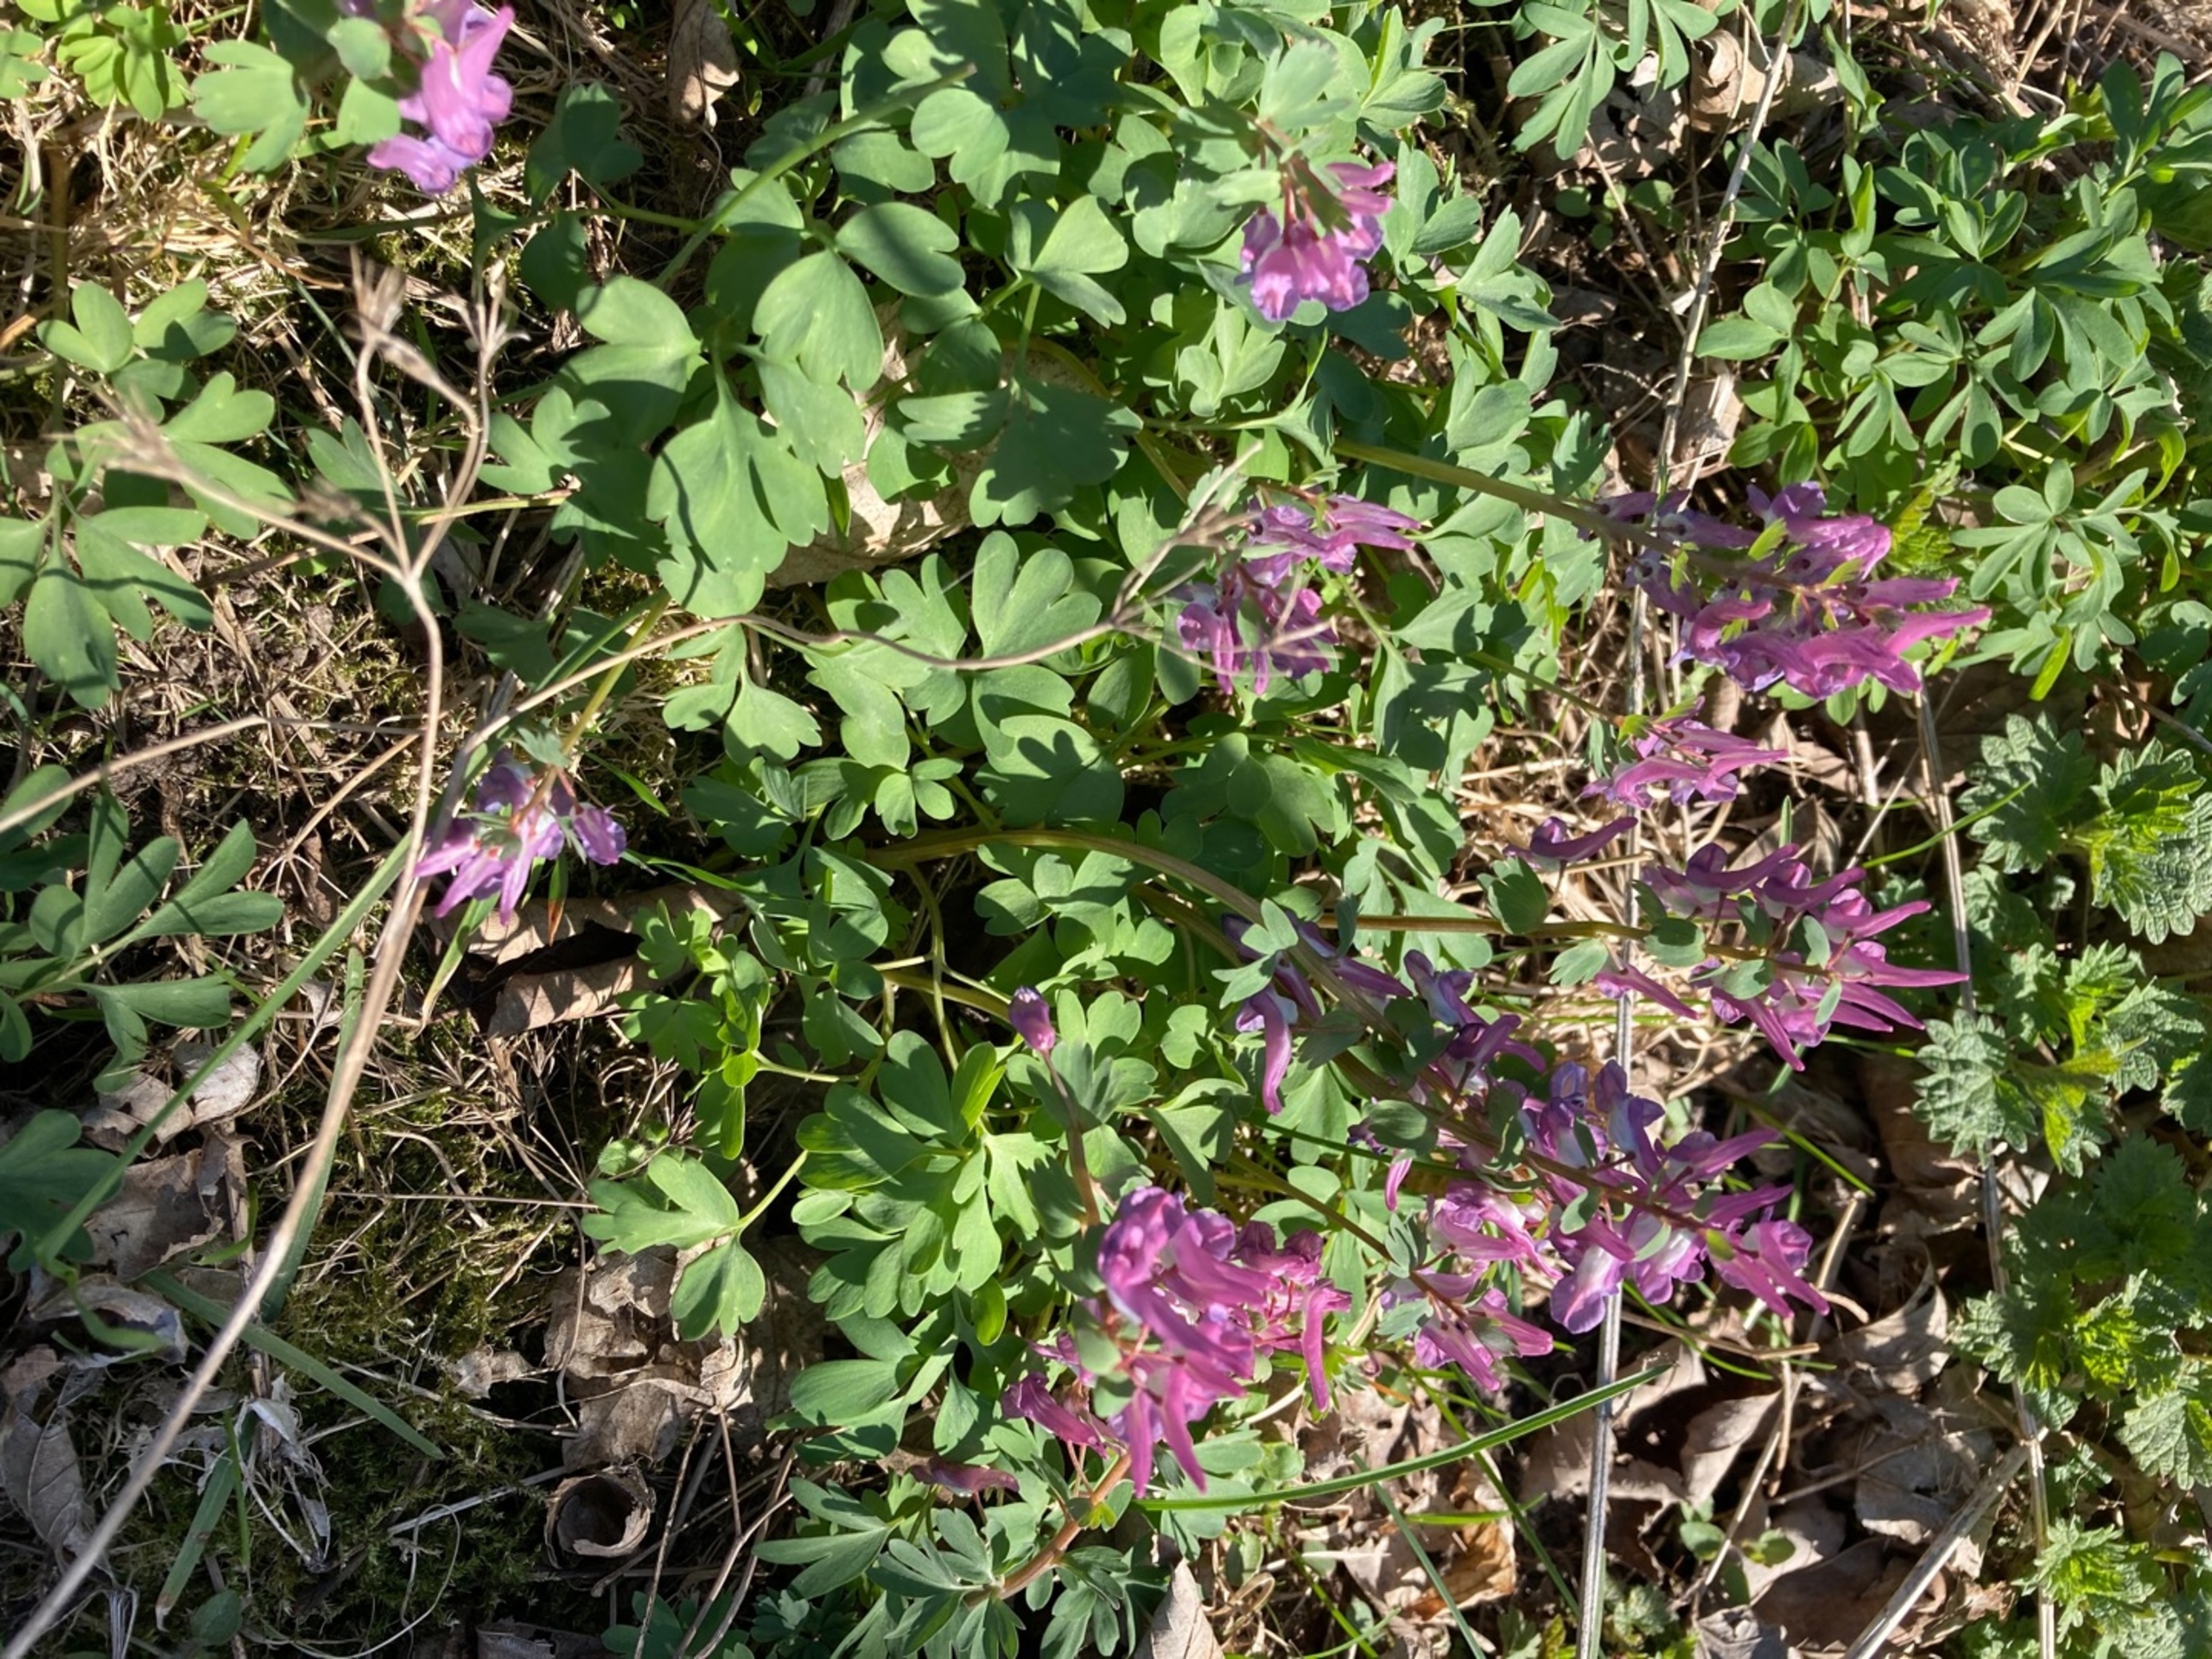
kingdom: Plantae
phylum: Tracheophyta
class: Magnoliopsida
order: Ranunculales
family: Papaveraceae
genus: Corydalis
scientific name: Corydalis solida
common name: Langstilket lærkespore
